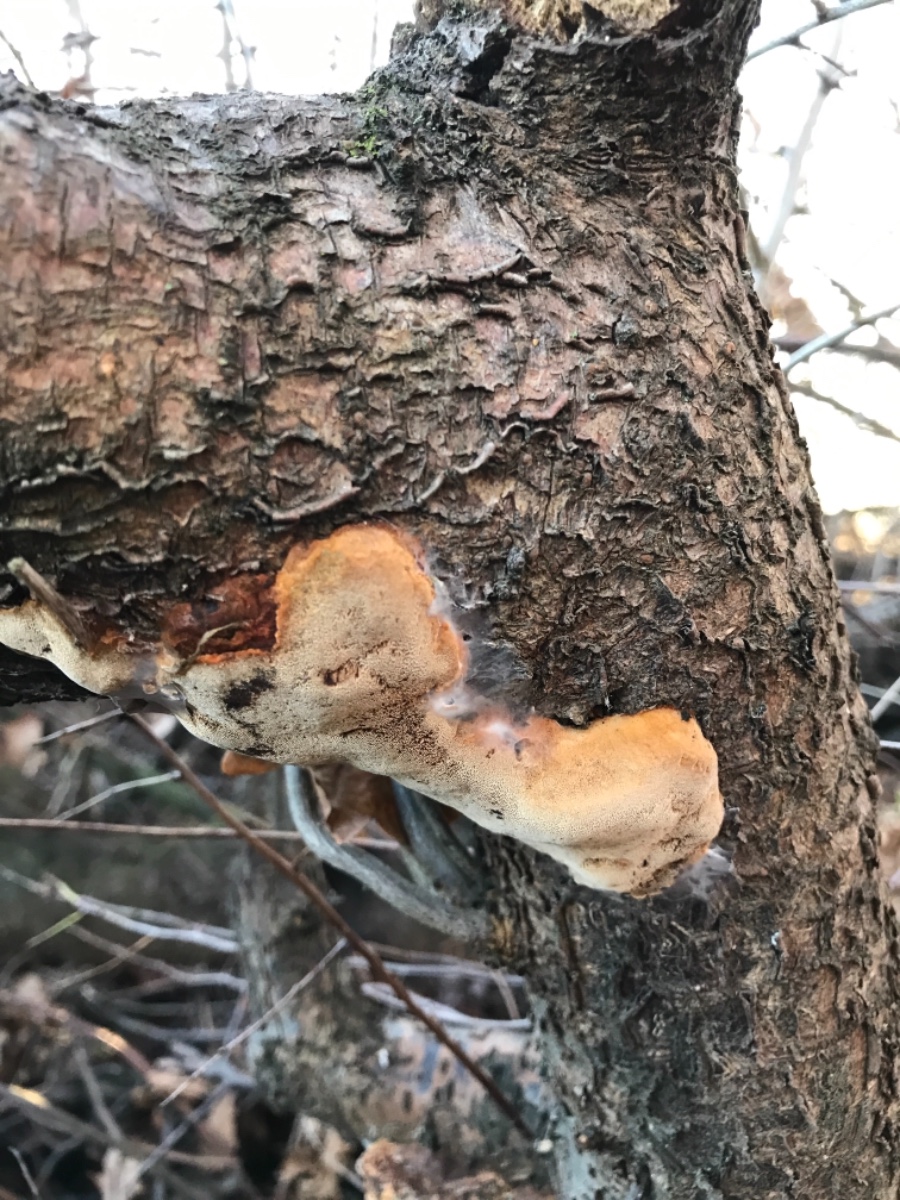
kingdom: Fungi
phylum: Basidiomycota
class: Agaricomycetes
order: Hymenochaetales
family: Hymenochaetaceae
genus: Phellinus
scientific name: Phellinus pomaceus
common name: blomme-ildporesvamp
